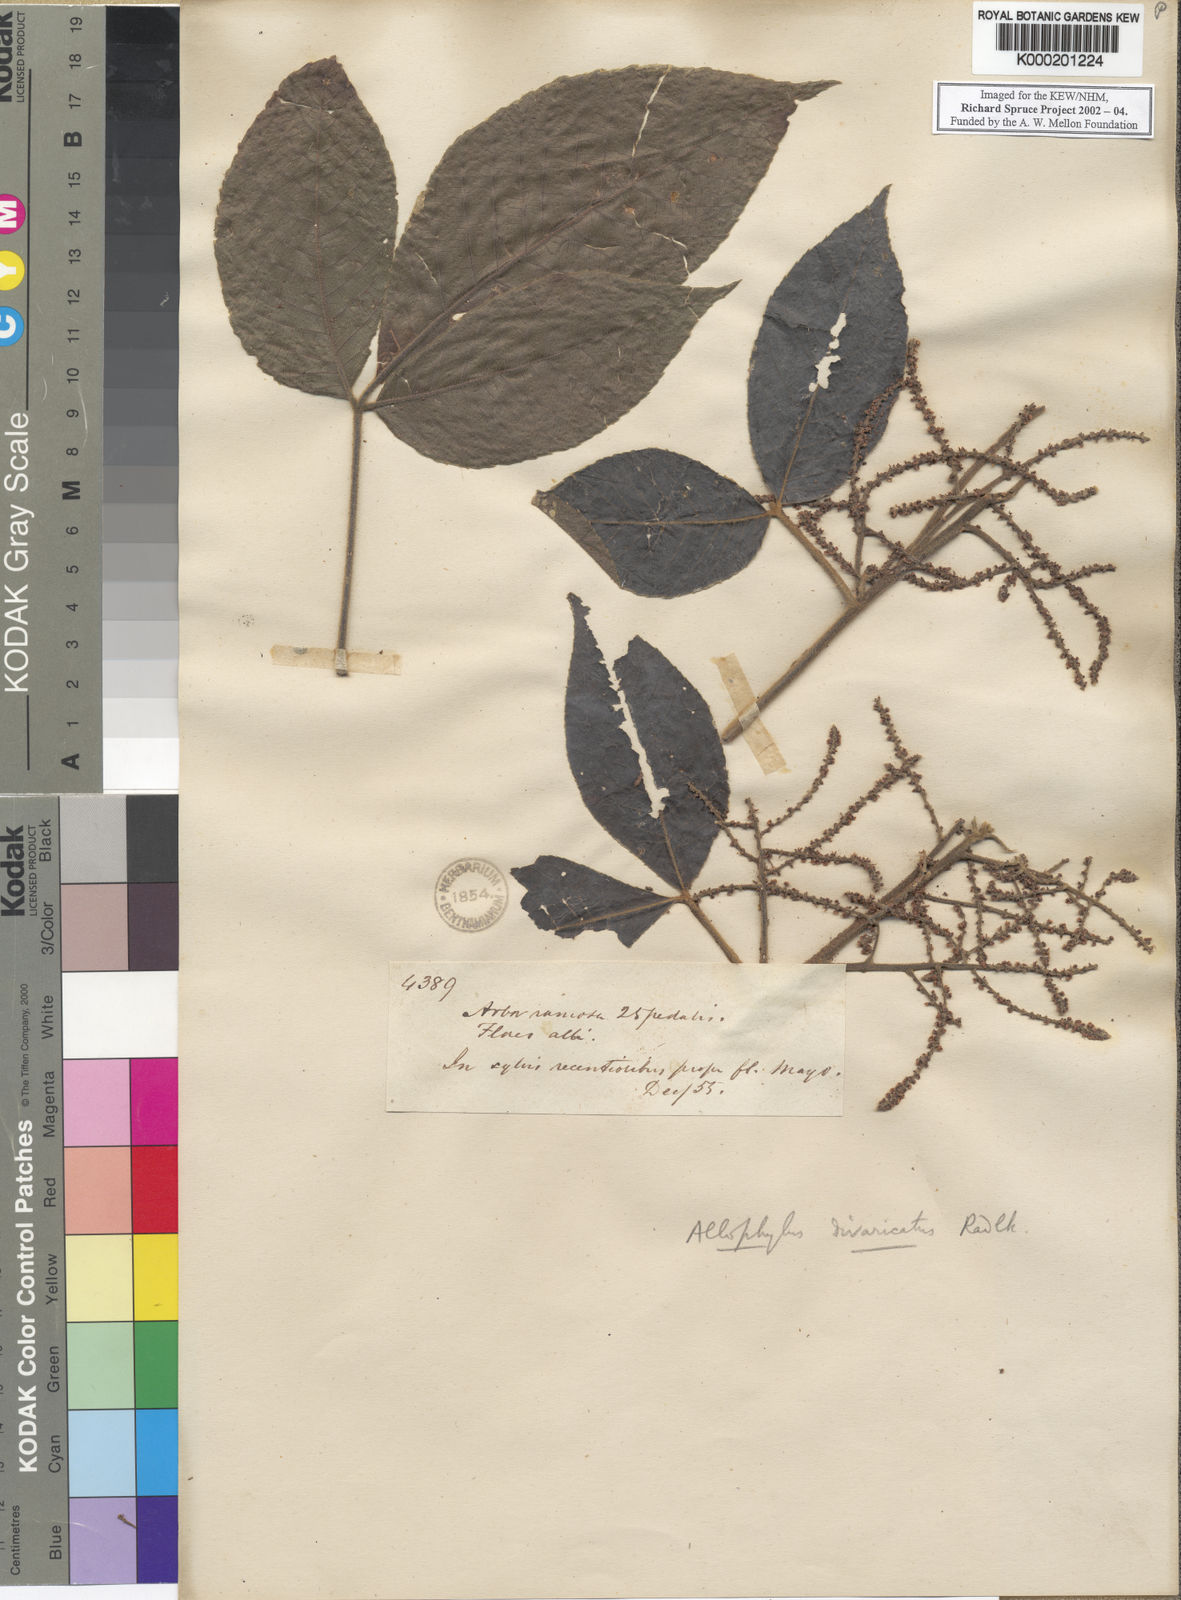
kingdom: Plantae
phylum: Tracheophyta
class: Magnoliopsida
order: Sapindales
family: Sapindaceae
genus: Allophylus
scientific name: Allophylus divaricatus
